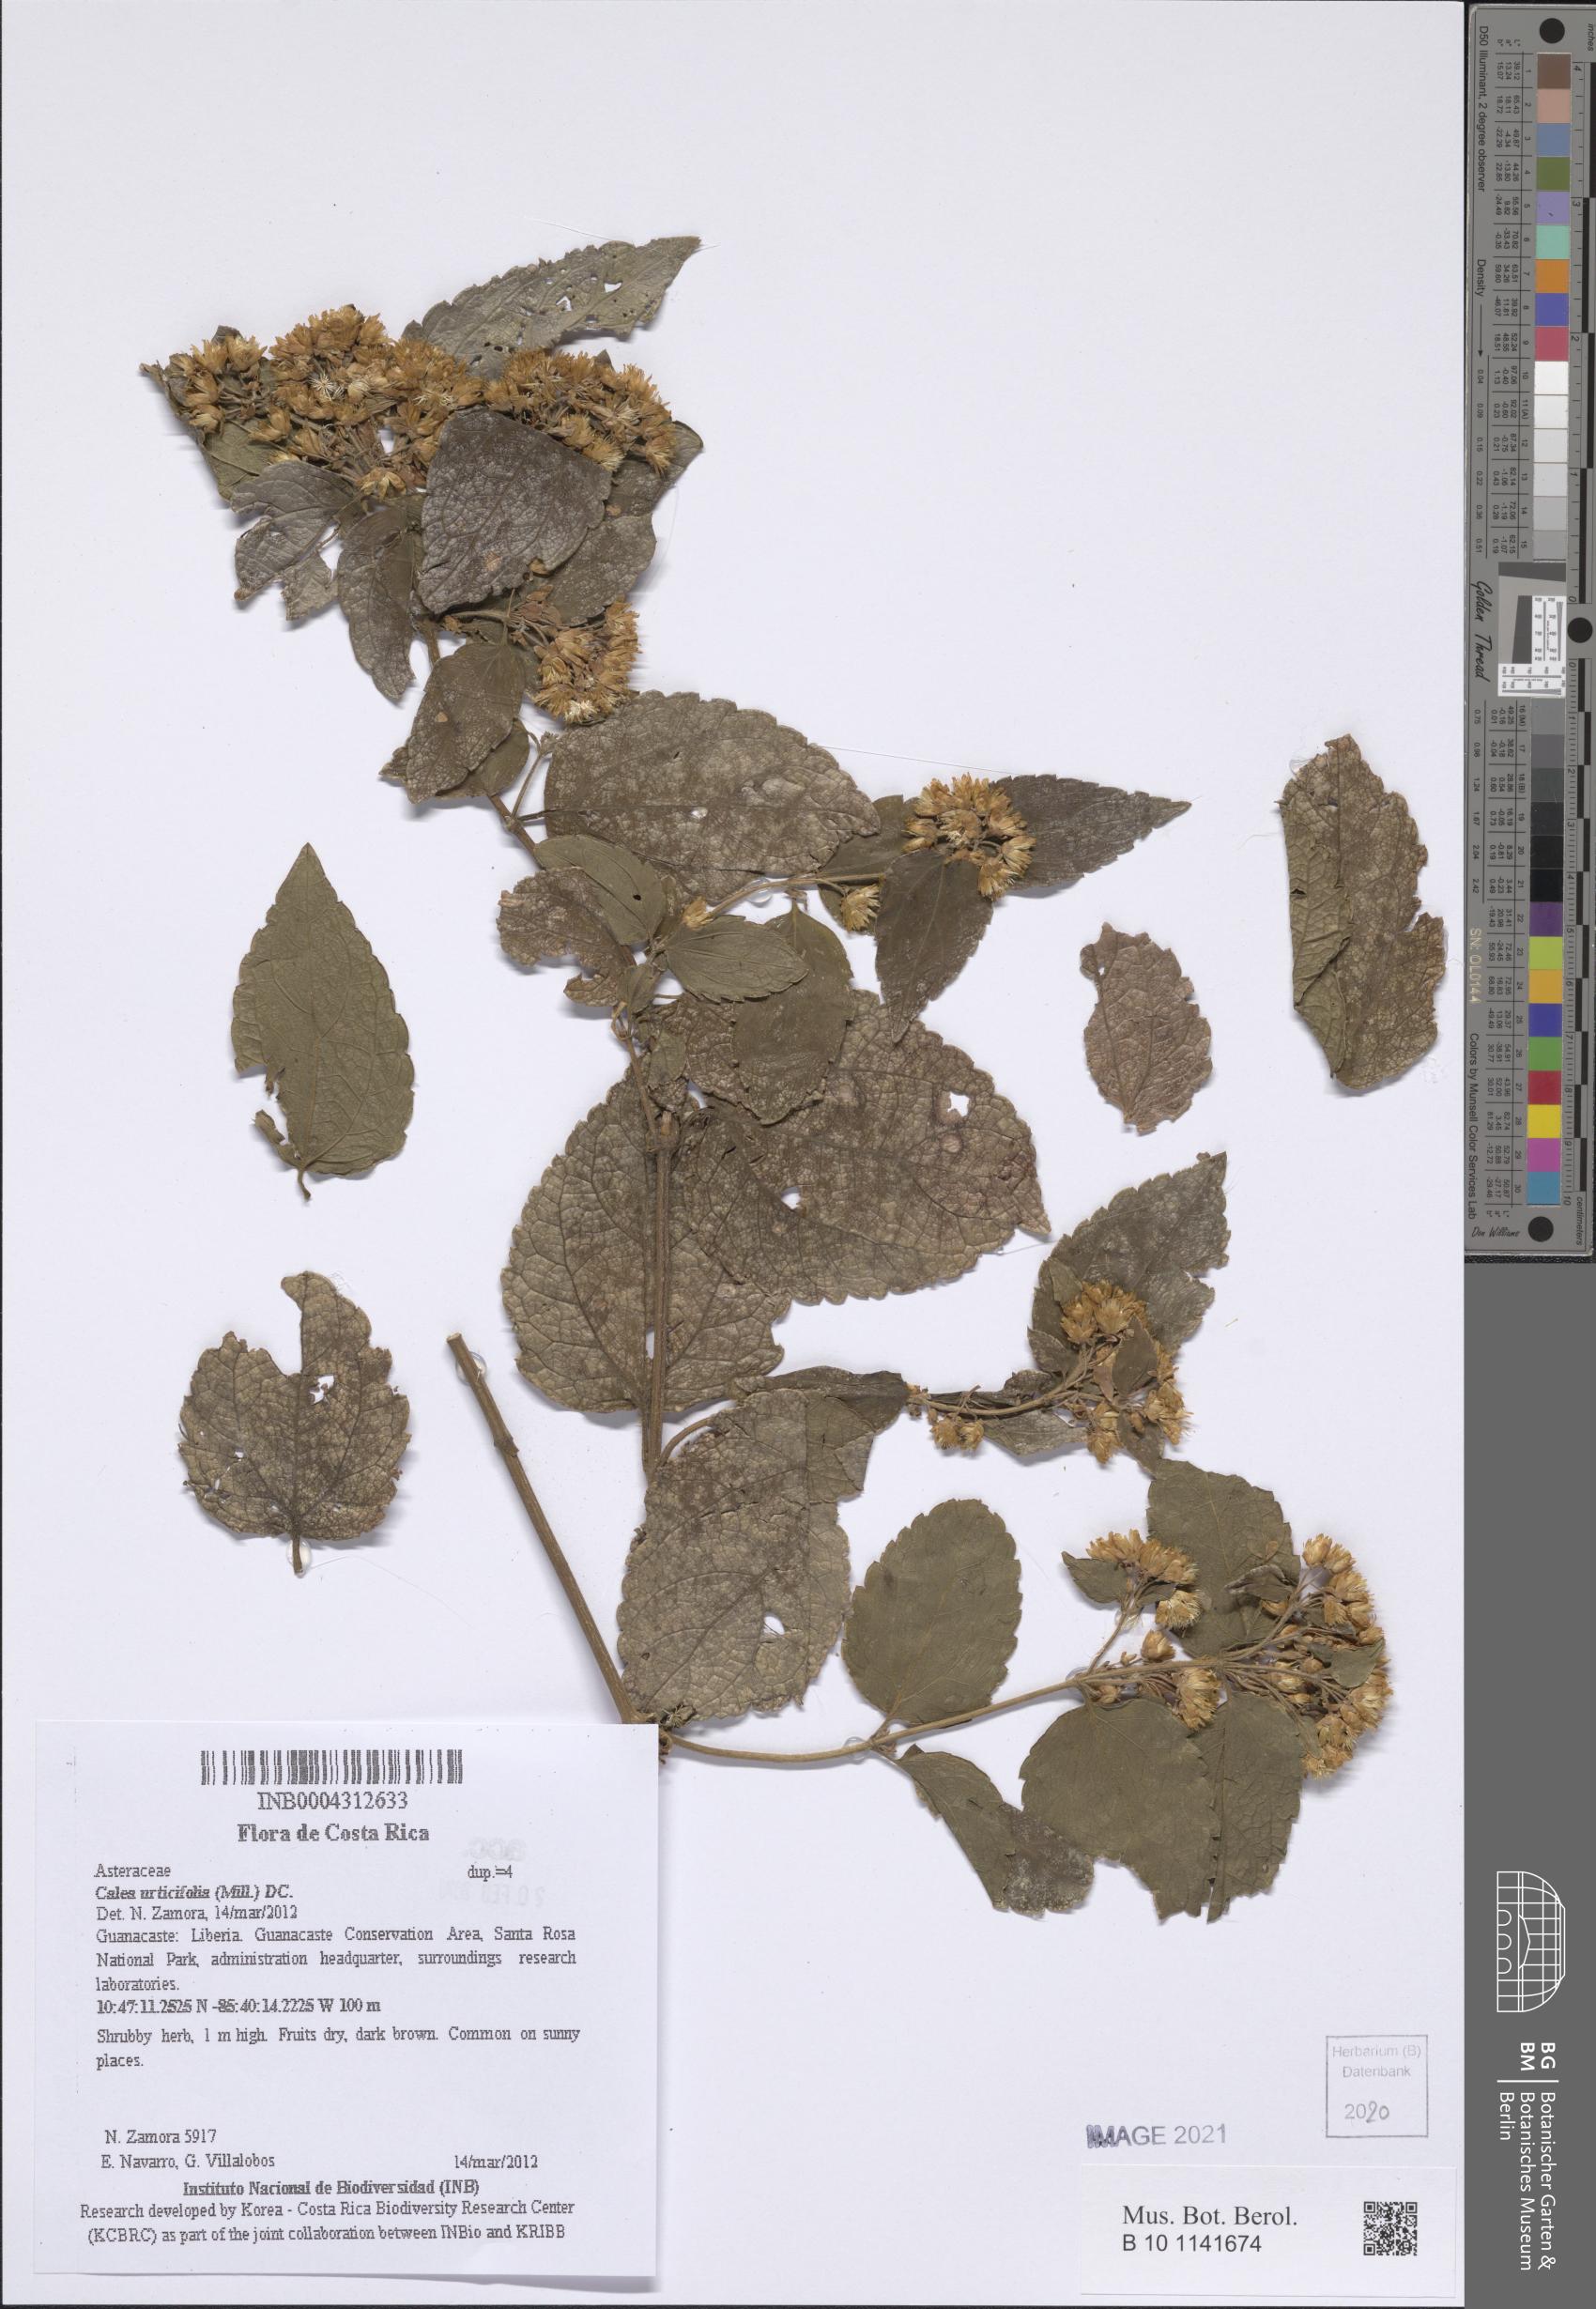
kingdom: Plantae
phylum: Tracheophyta
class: Magnoliopsida
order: Asterales
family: Asteraceae
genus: Calea
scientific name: Calea urticifolia
